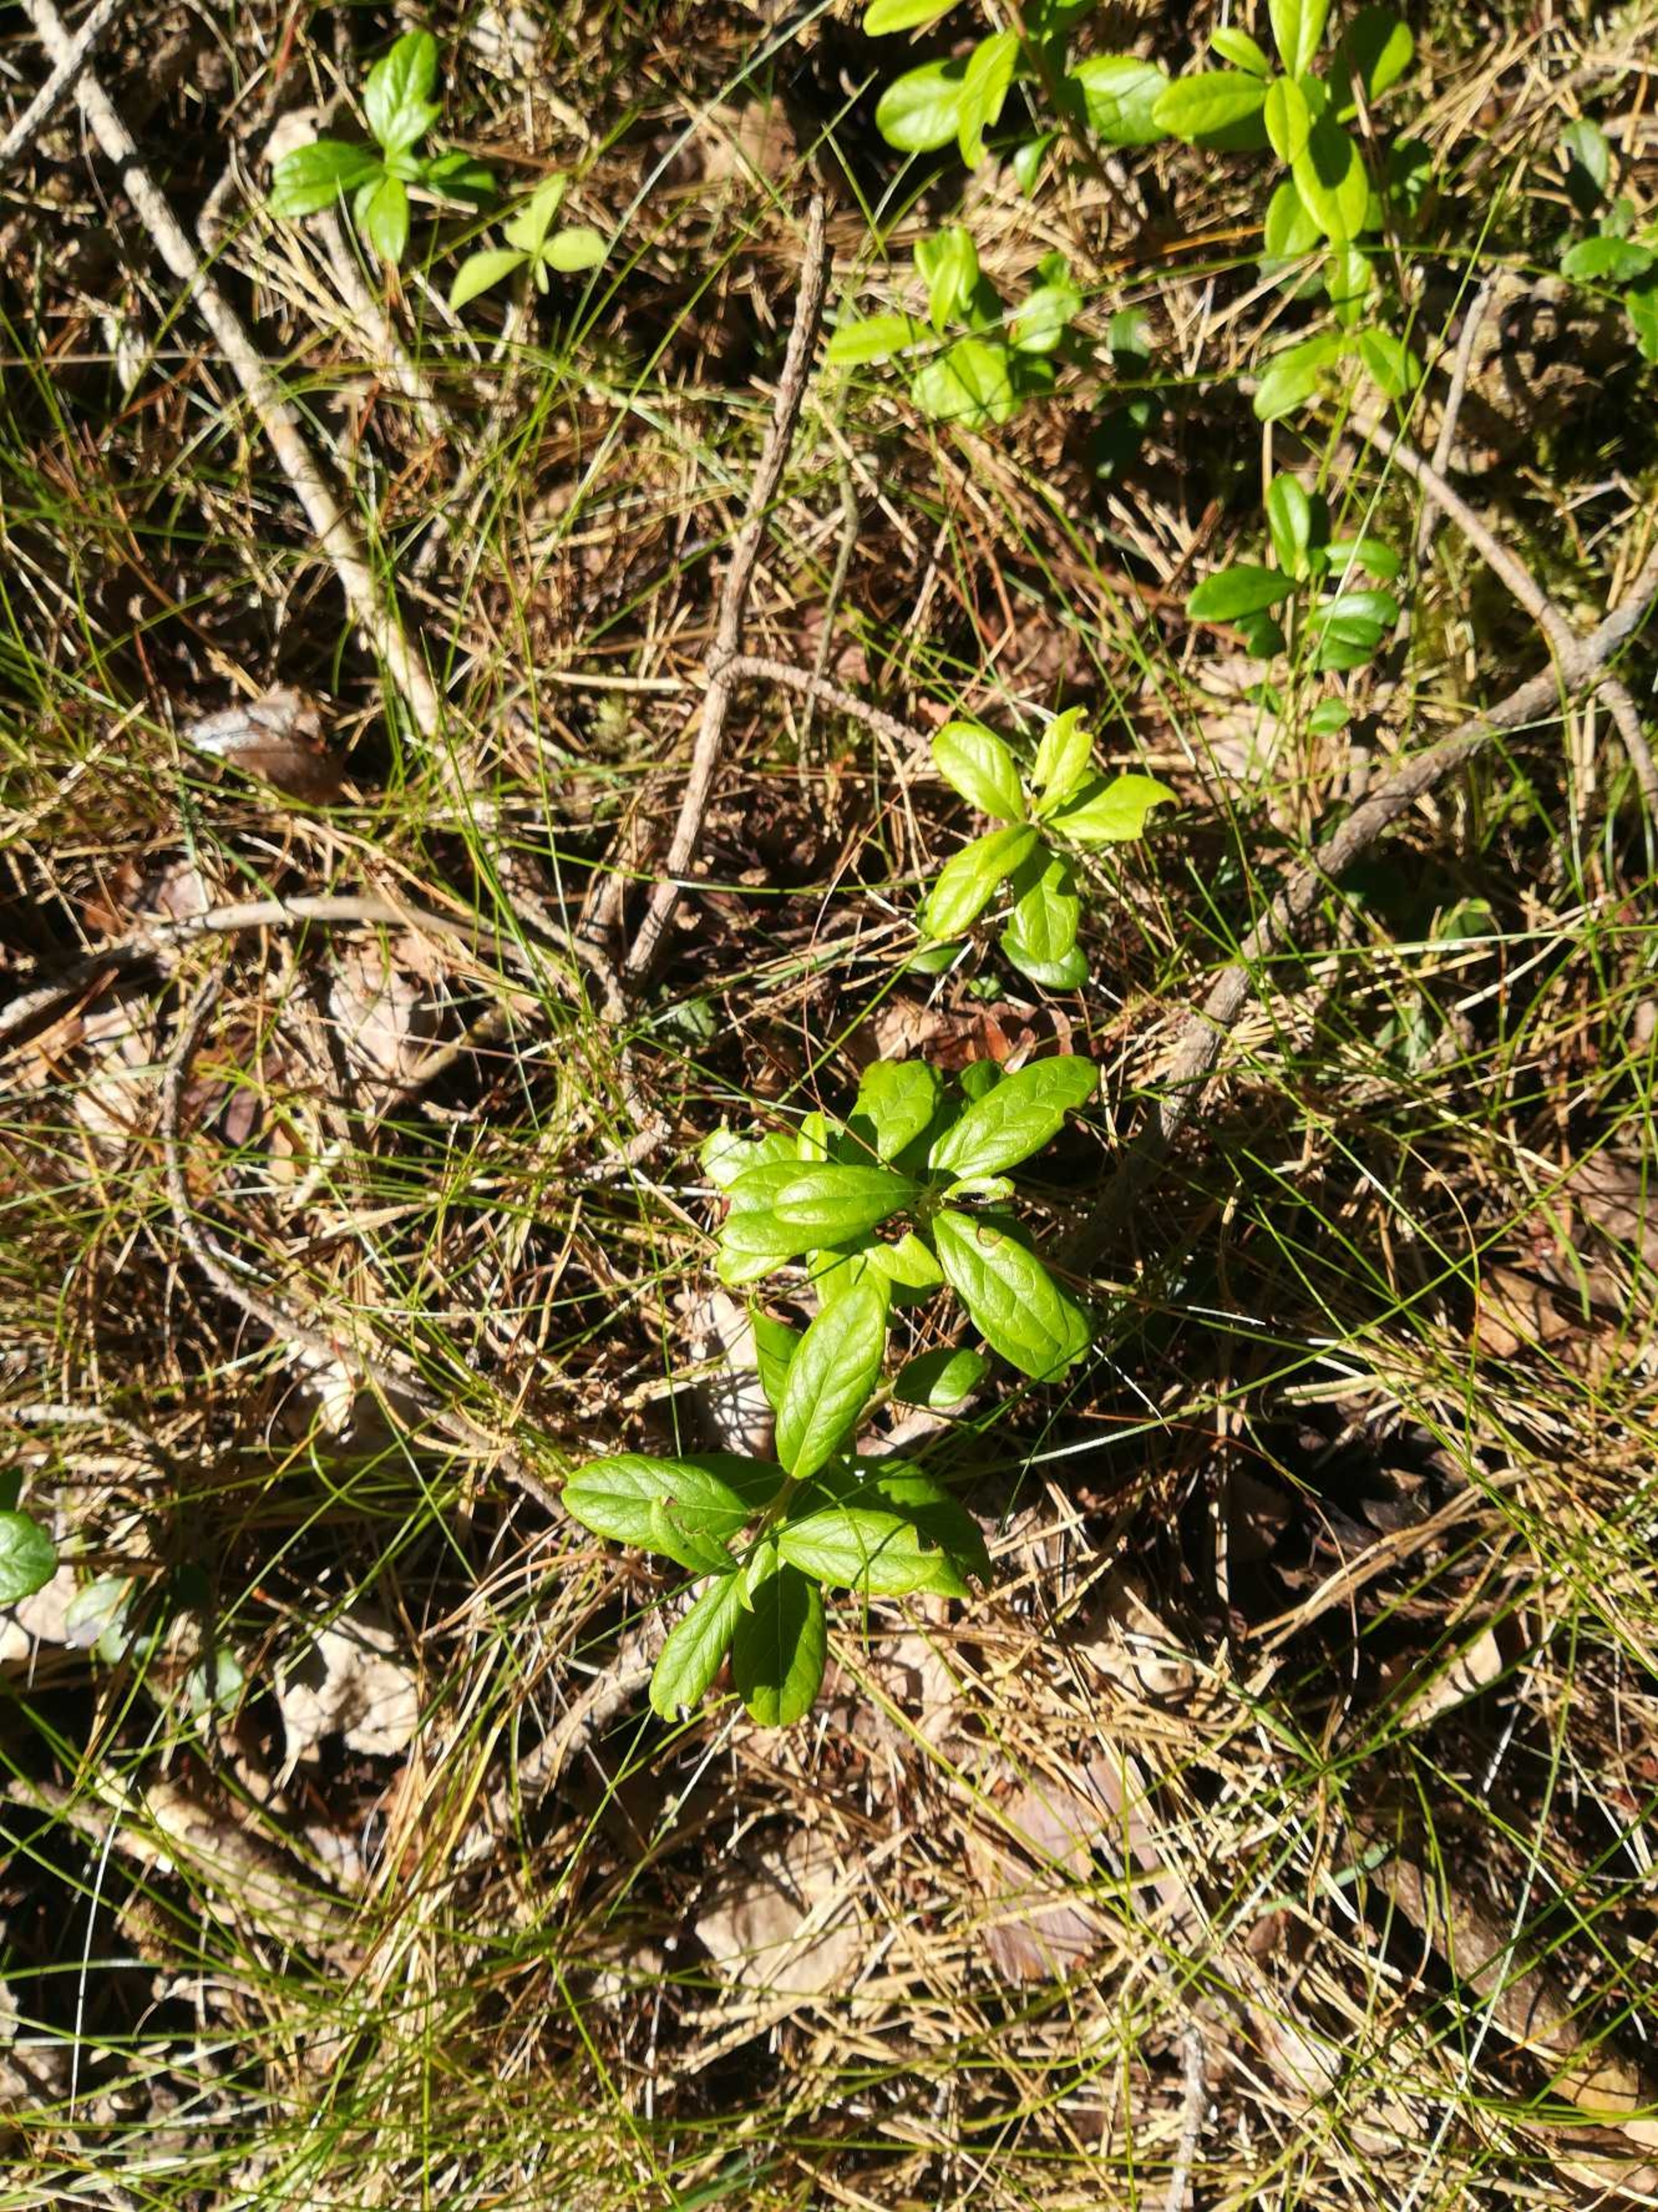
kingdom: Plantae
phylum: Tracheophyta
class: Magnoliopsida
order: Ericales
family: Ericaceae
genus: Vaccinium
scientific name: Vaccinium vitis-idaea
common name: Tyttebær
